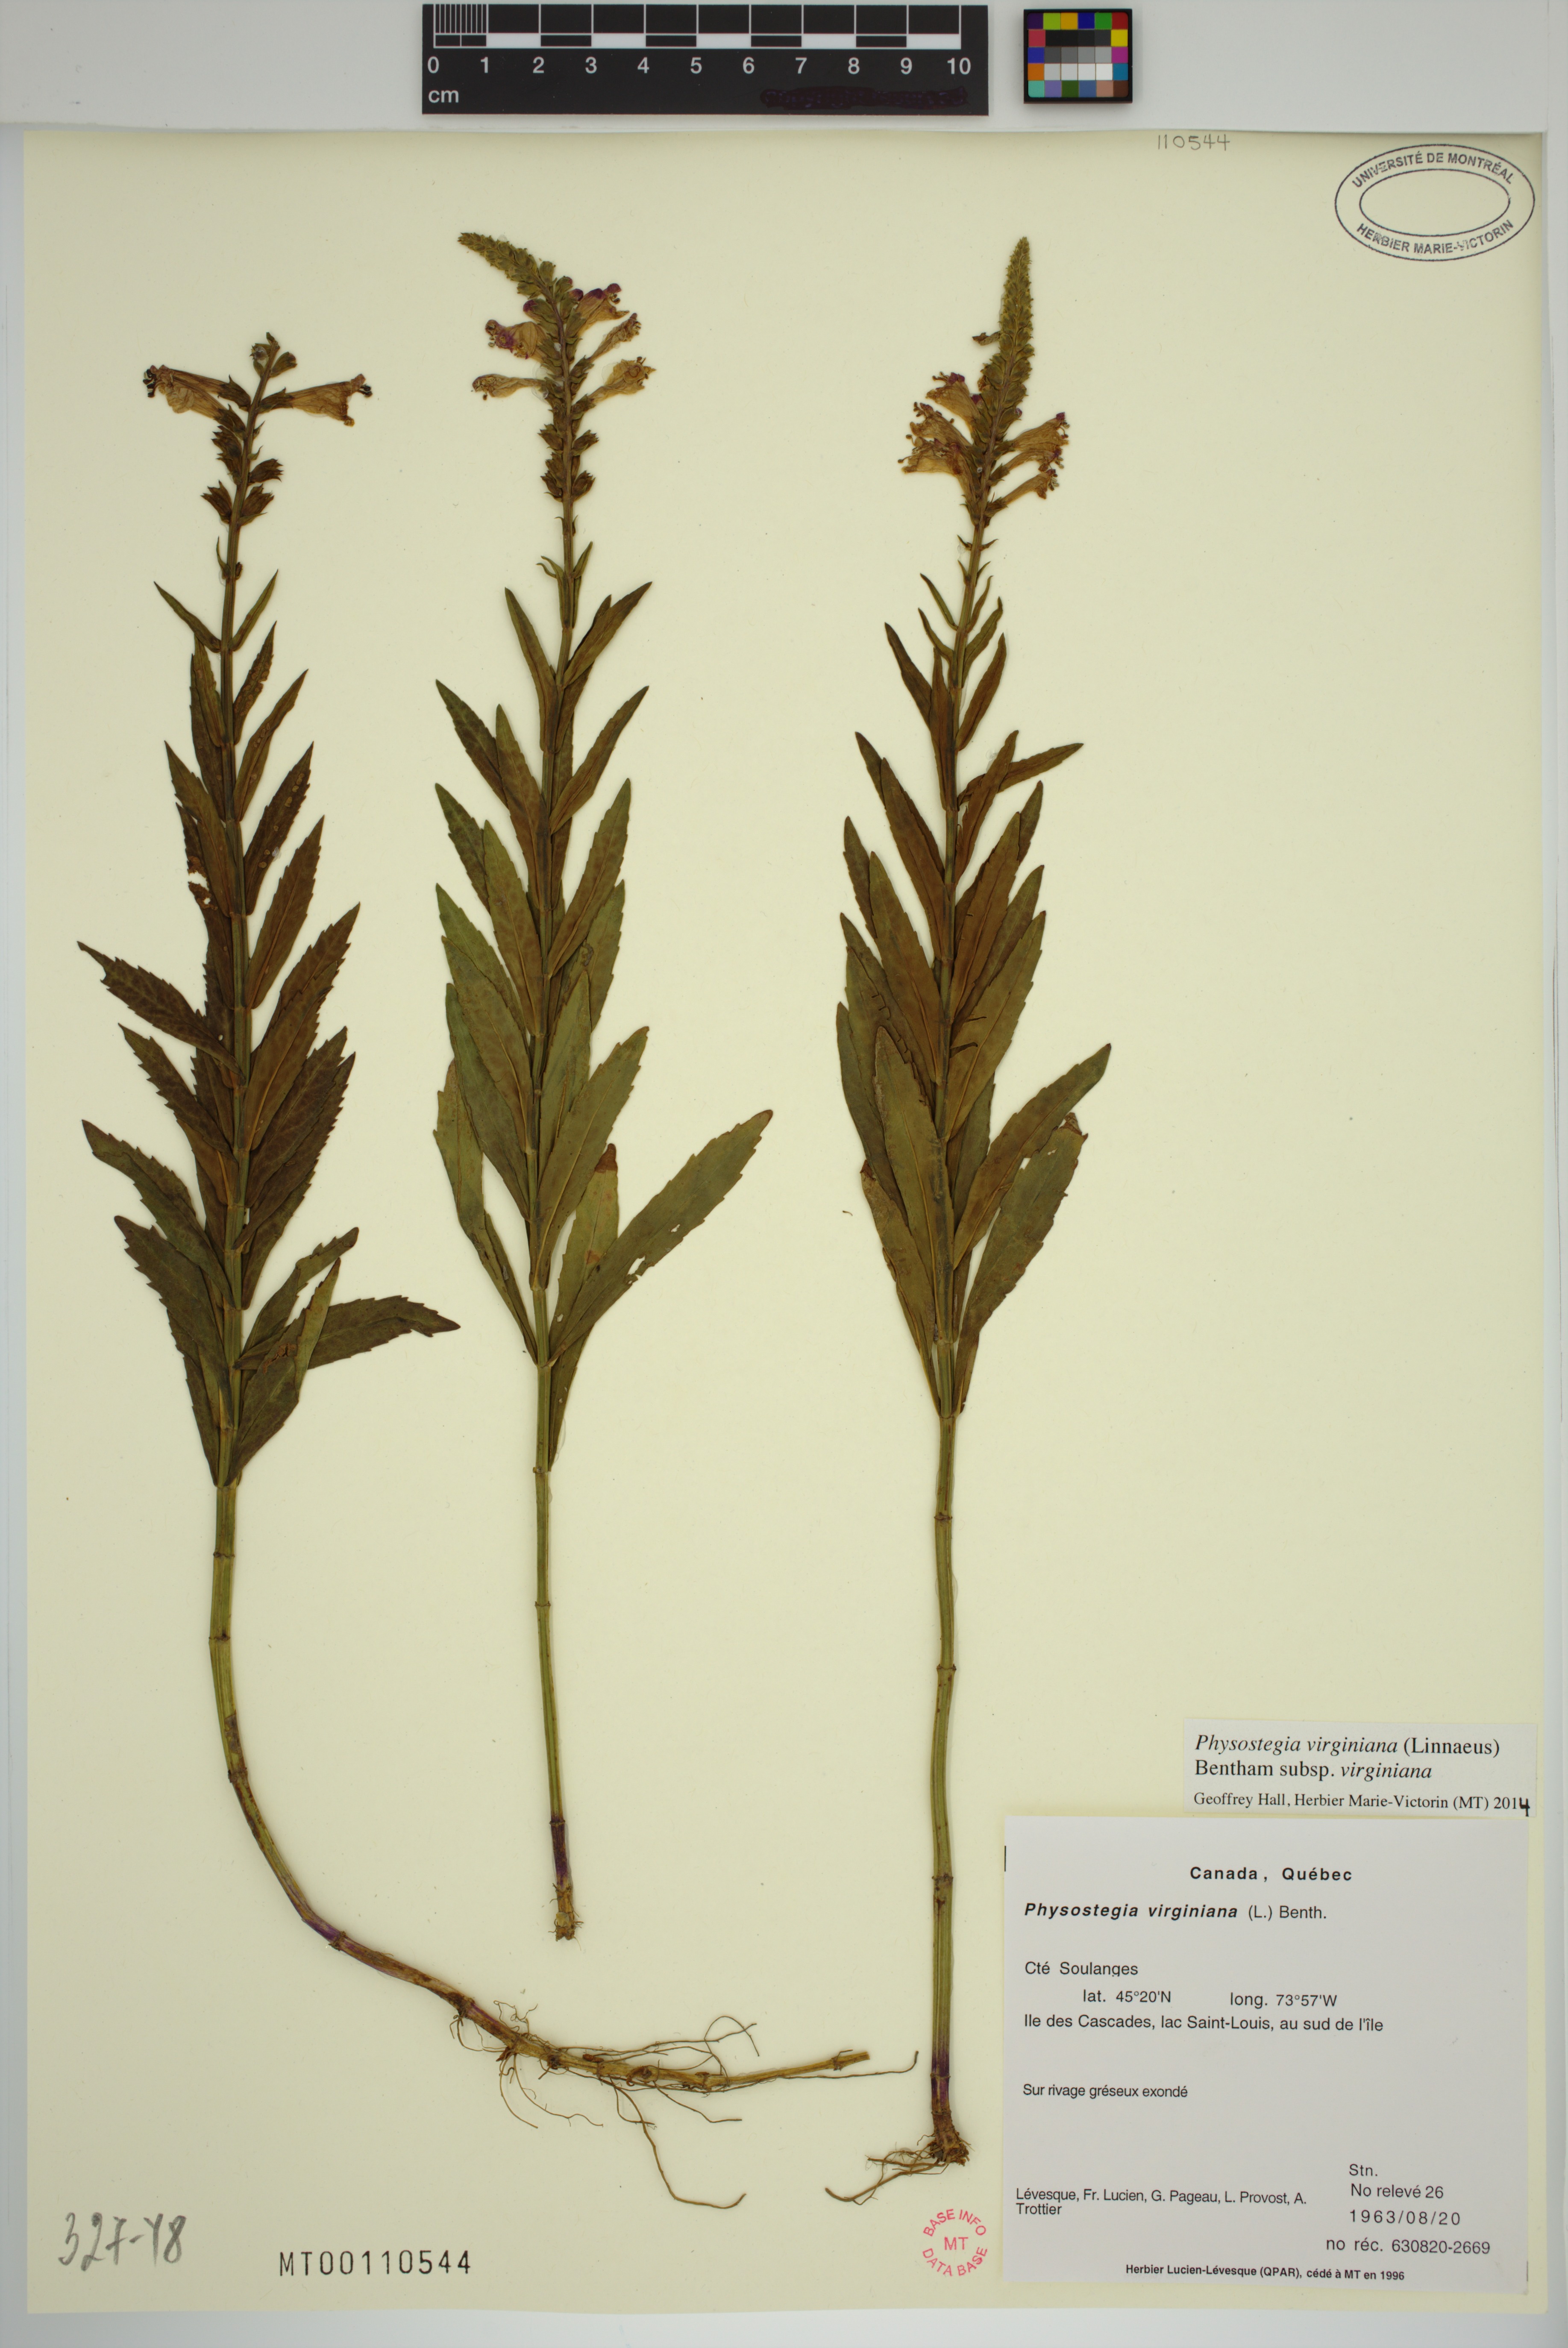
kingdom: Plantae
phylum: Tracheophyta
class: Magnoliopsida
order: Lamiales
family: Lamiaceae
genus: Physostegia
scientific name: Physostegia virginiana
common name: Obedient-plant
